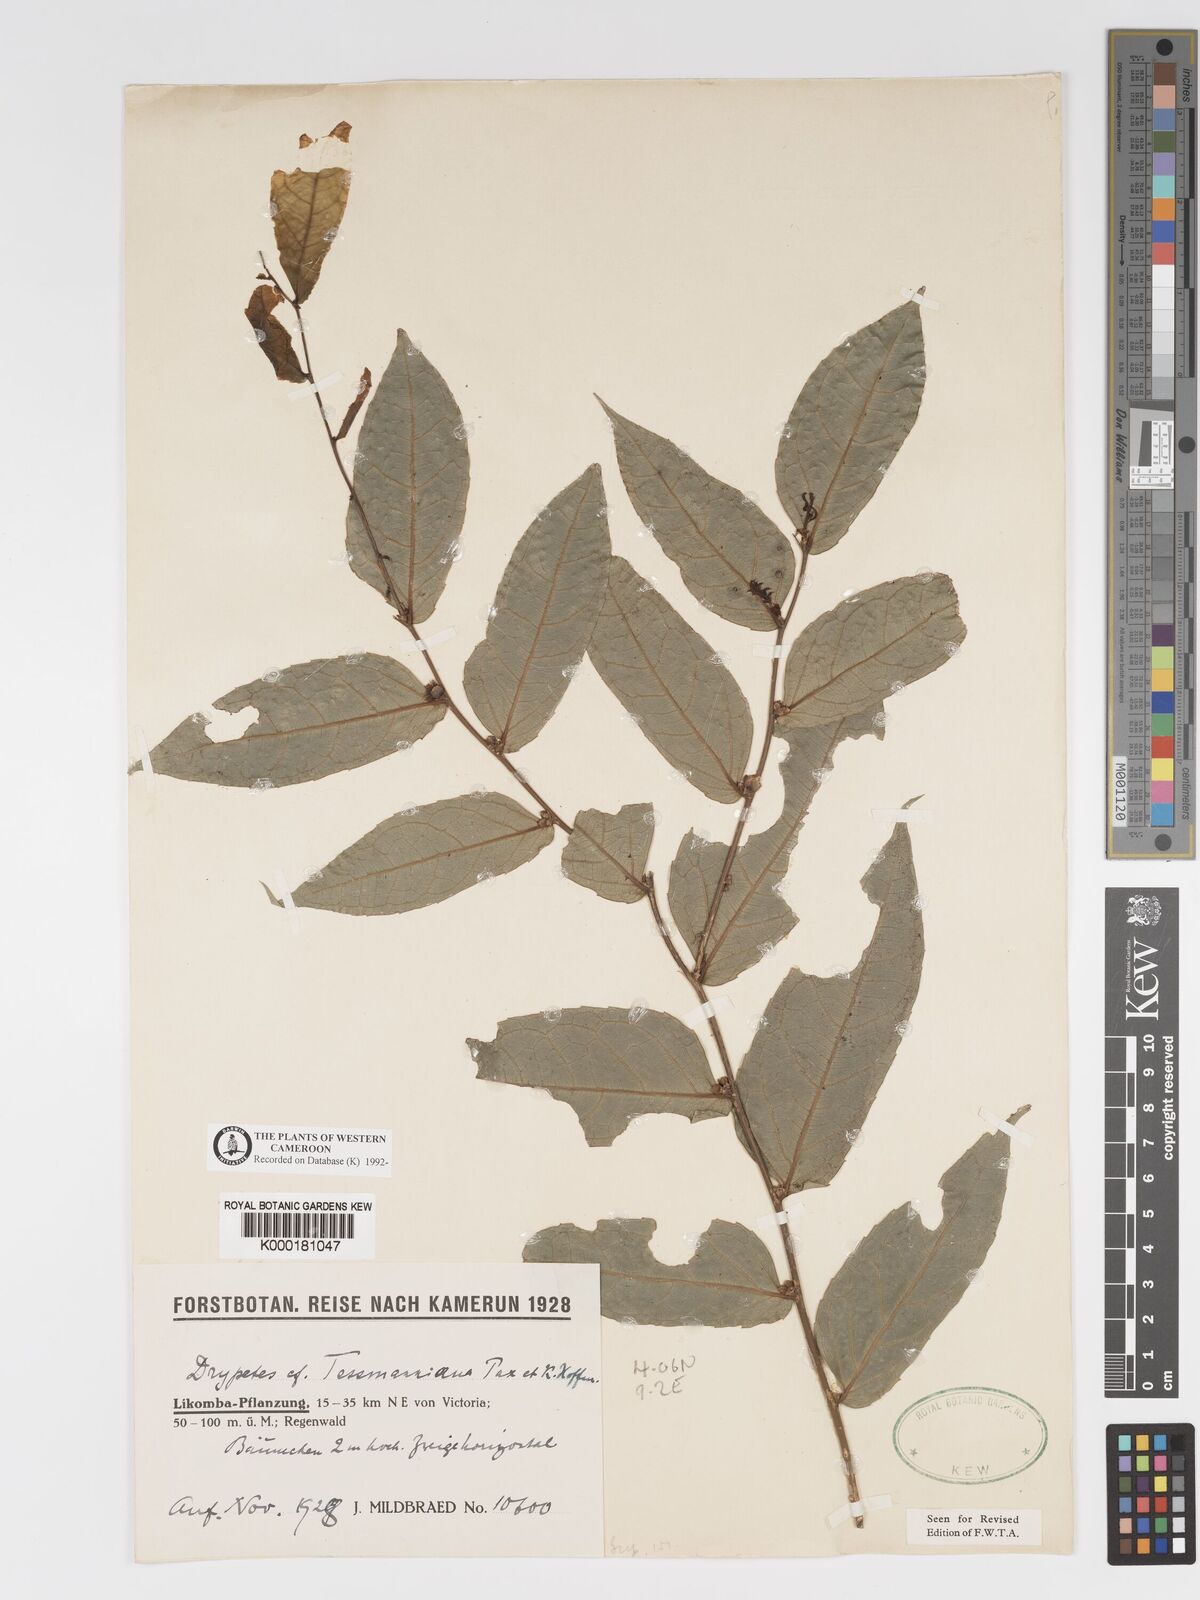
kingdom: Plantae
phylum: Tracheophyta
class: Magnoliopsida
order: Malpighiales
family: Putranjivaceae
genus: Drypetes
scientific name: Drypetes tessmanniana
